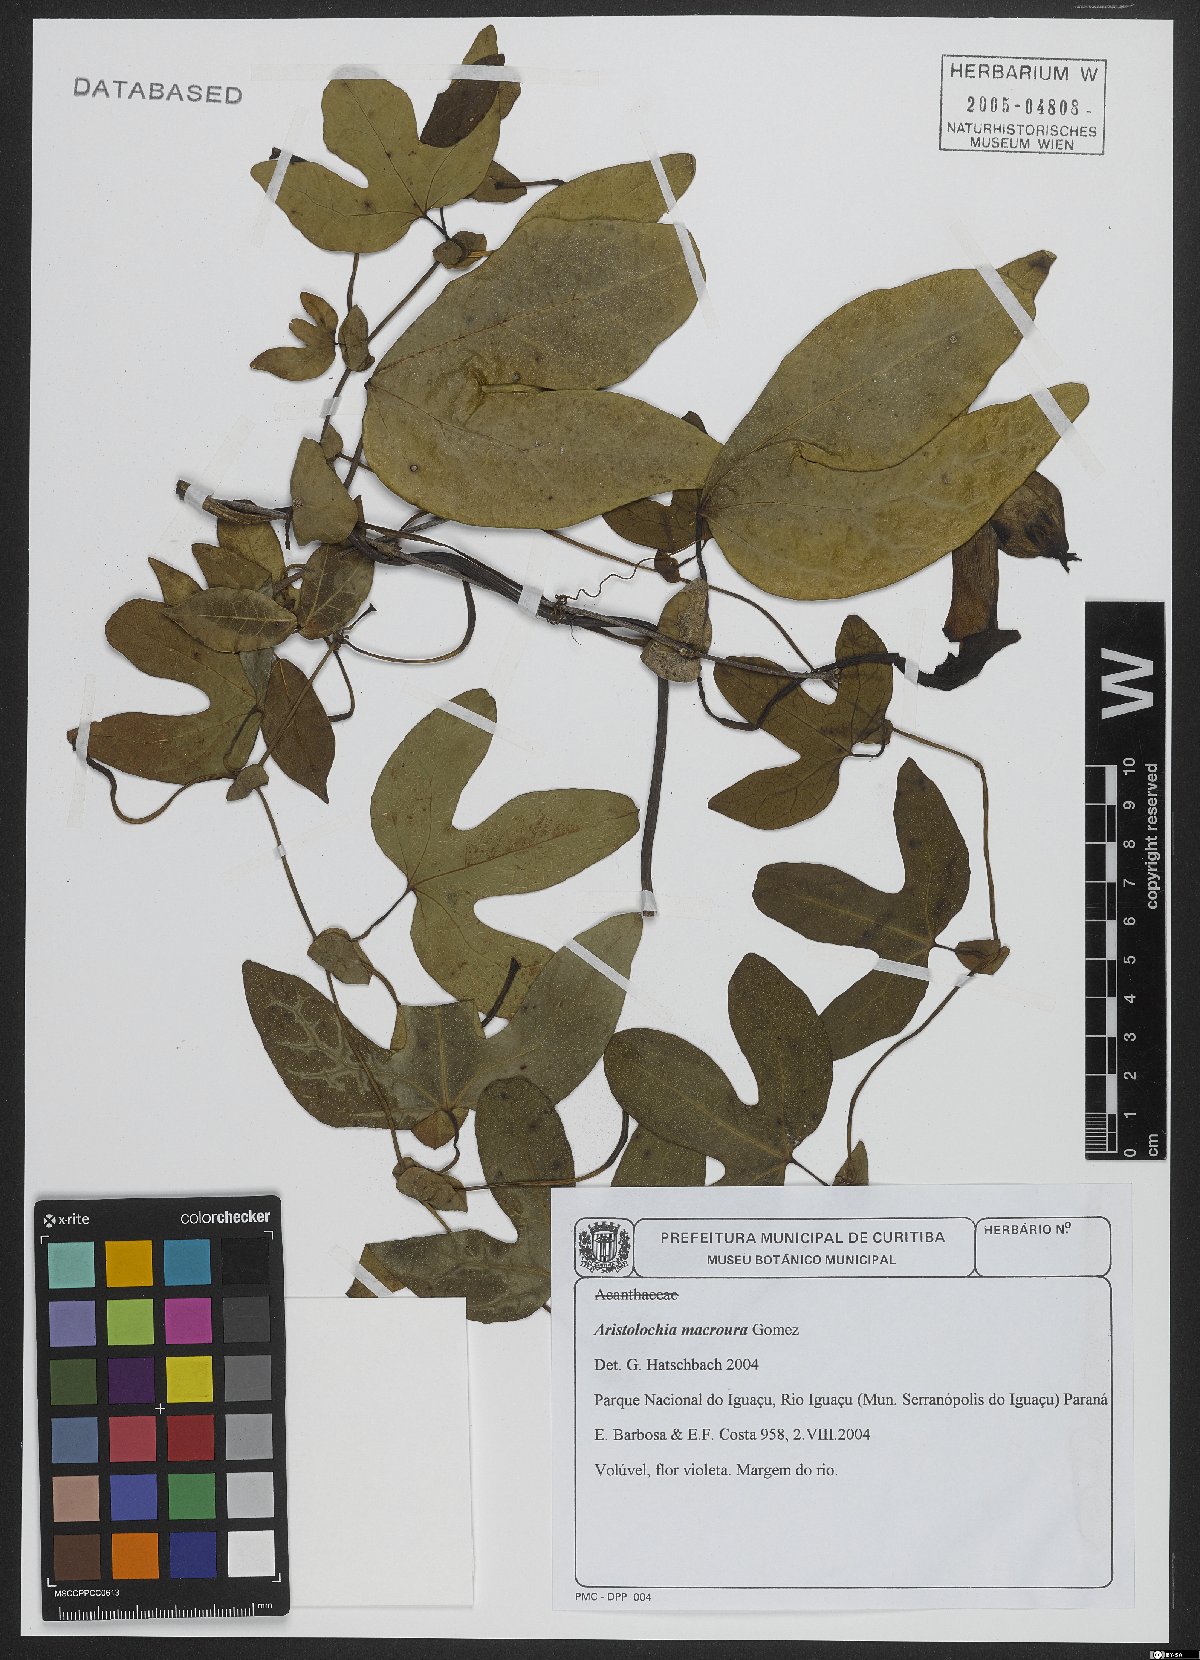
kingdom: Plantae
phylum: Tracheophyta
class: Magnoliopsida
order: Piperales
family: Aristolochiaceae
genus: Aristolochia
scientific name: Aristolochia macroura
